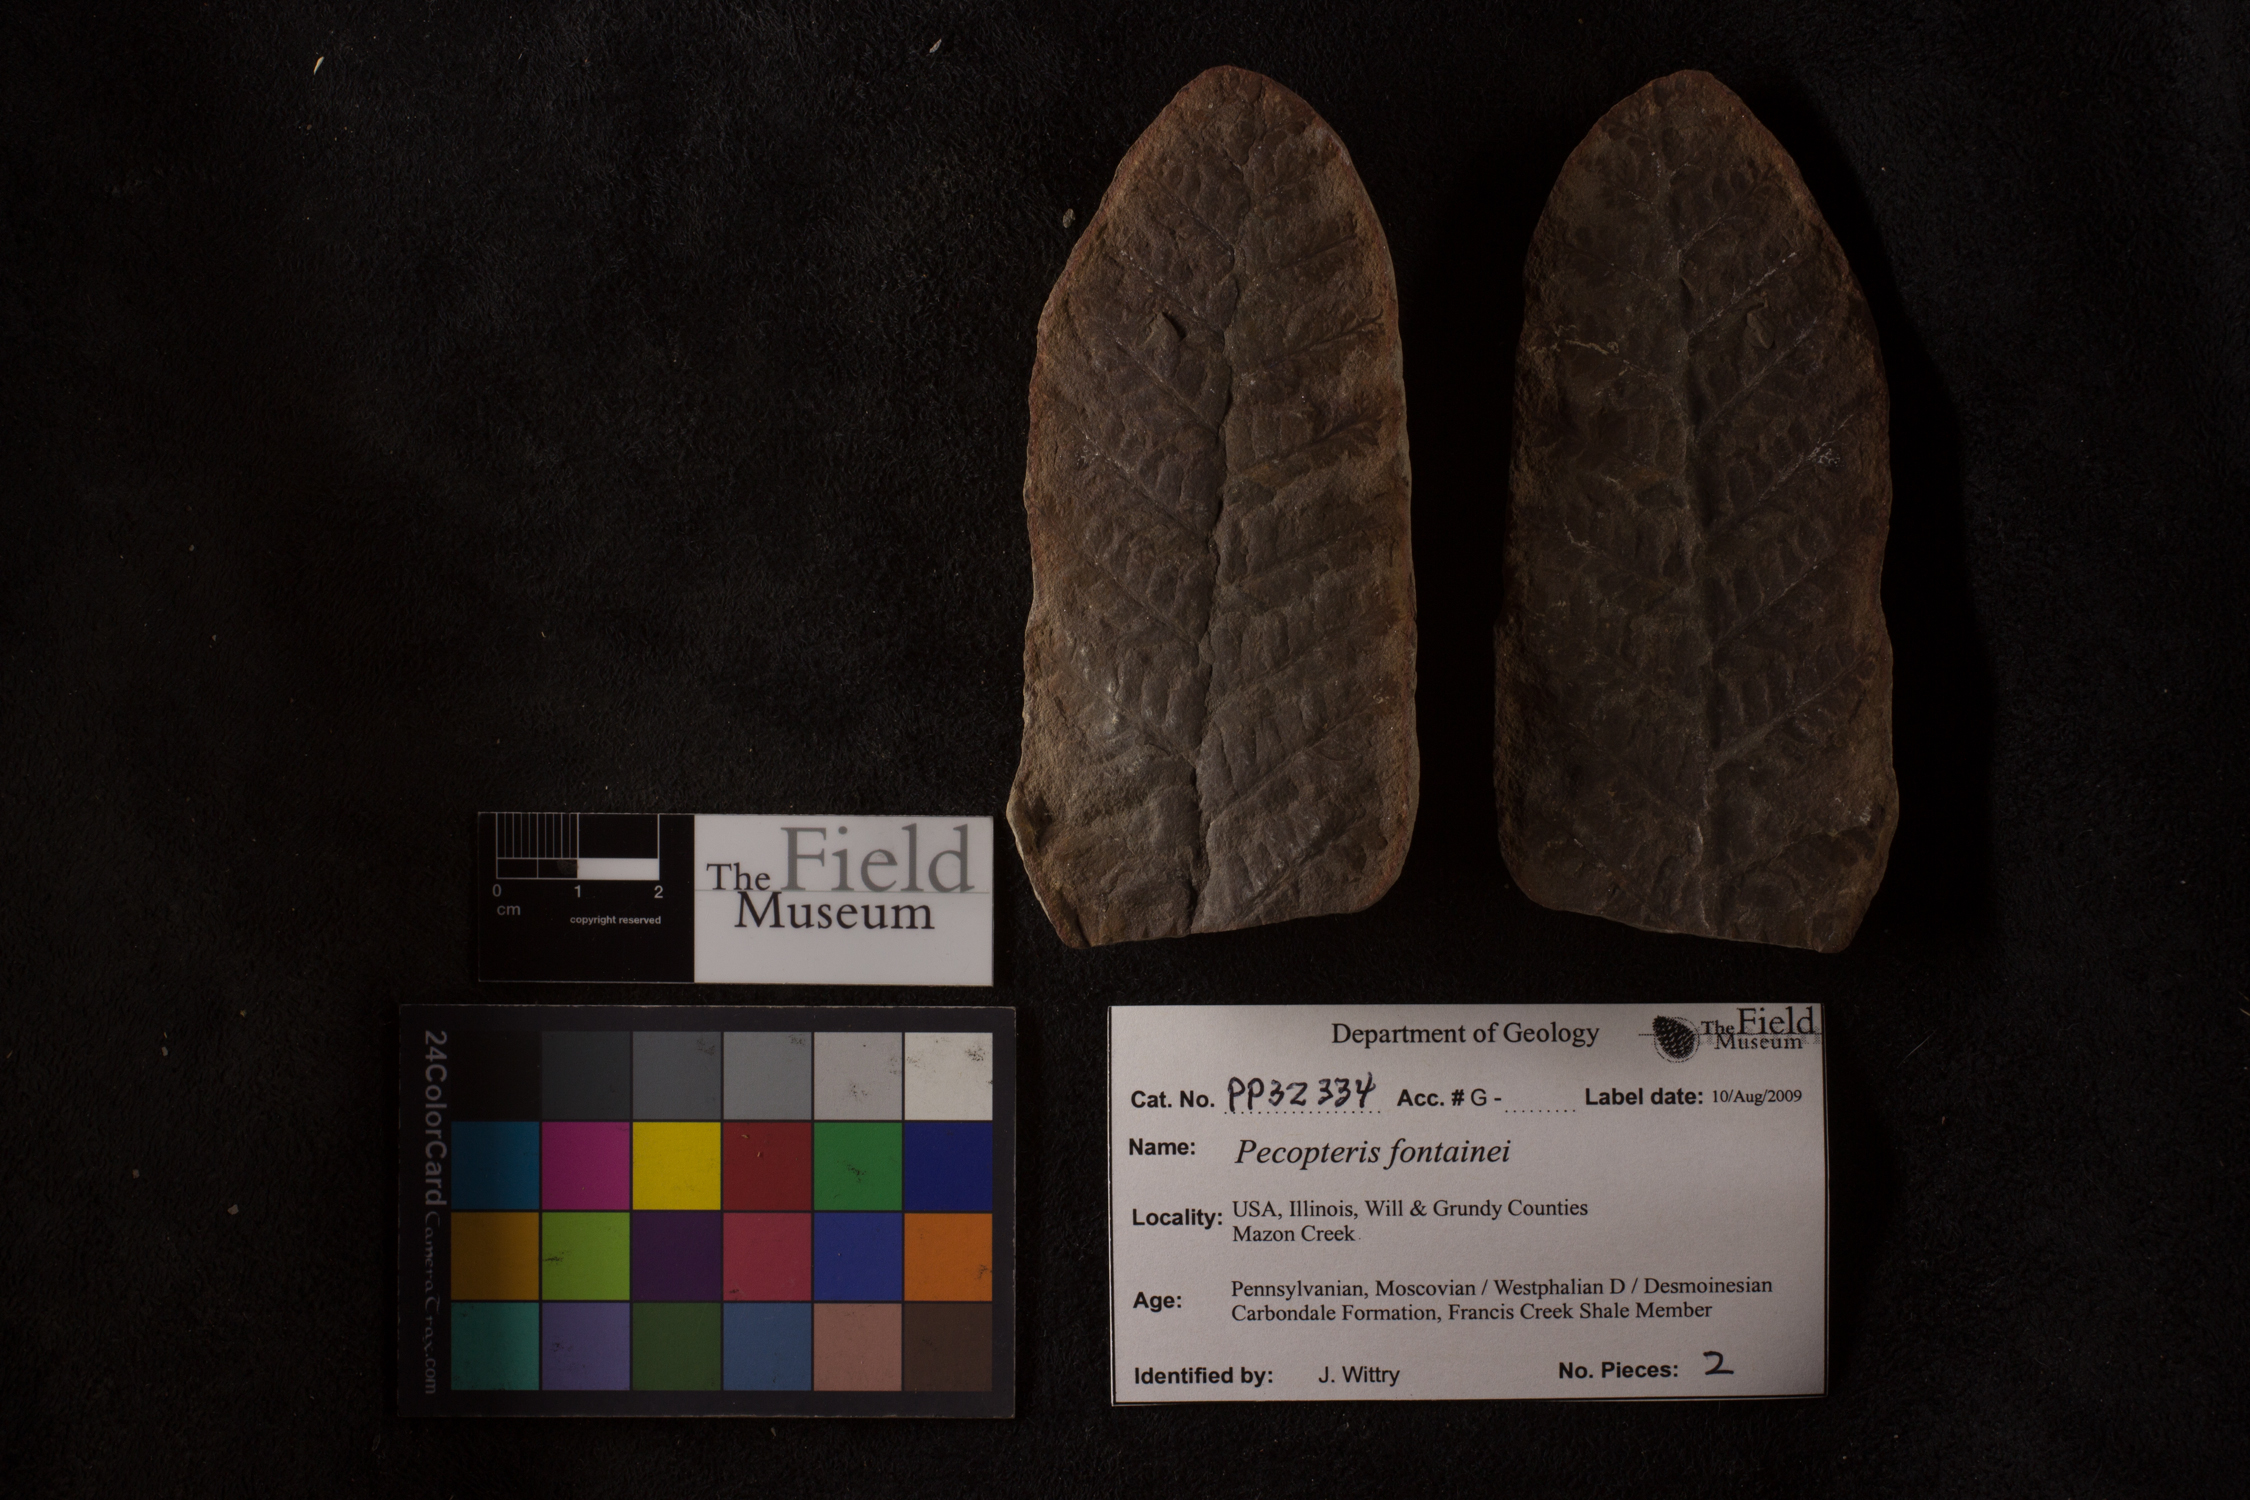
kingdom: Plantae
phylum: Tracheophyta
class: Polypodiopsida
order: Marattiales
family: Asterothecaceae
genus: Pecopteris
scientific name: Pecopteris
